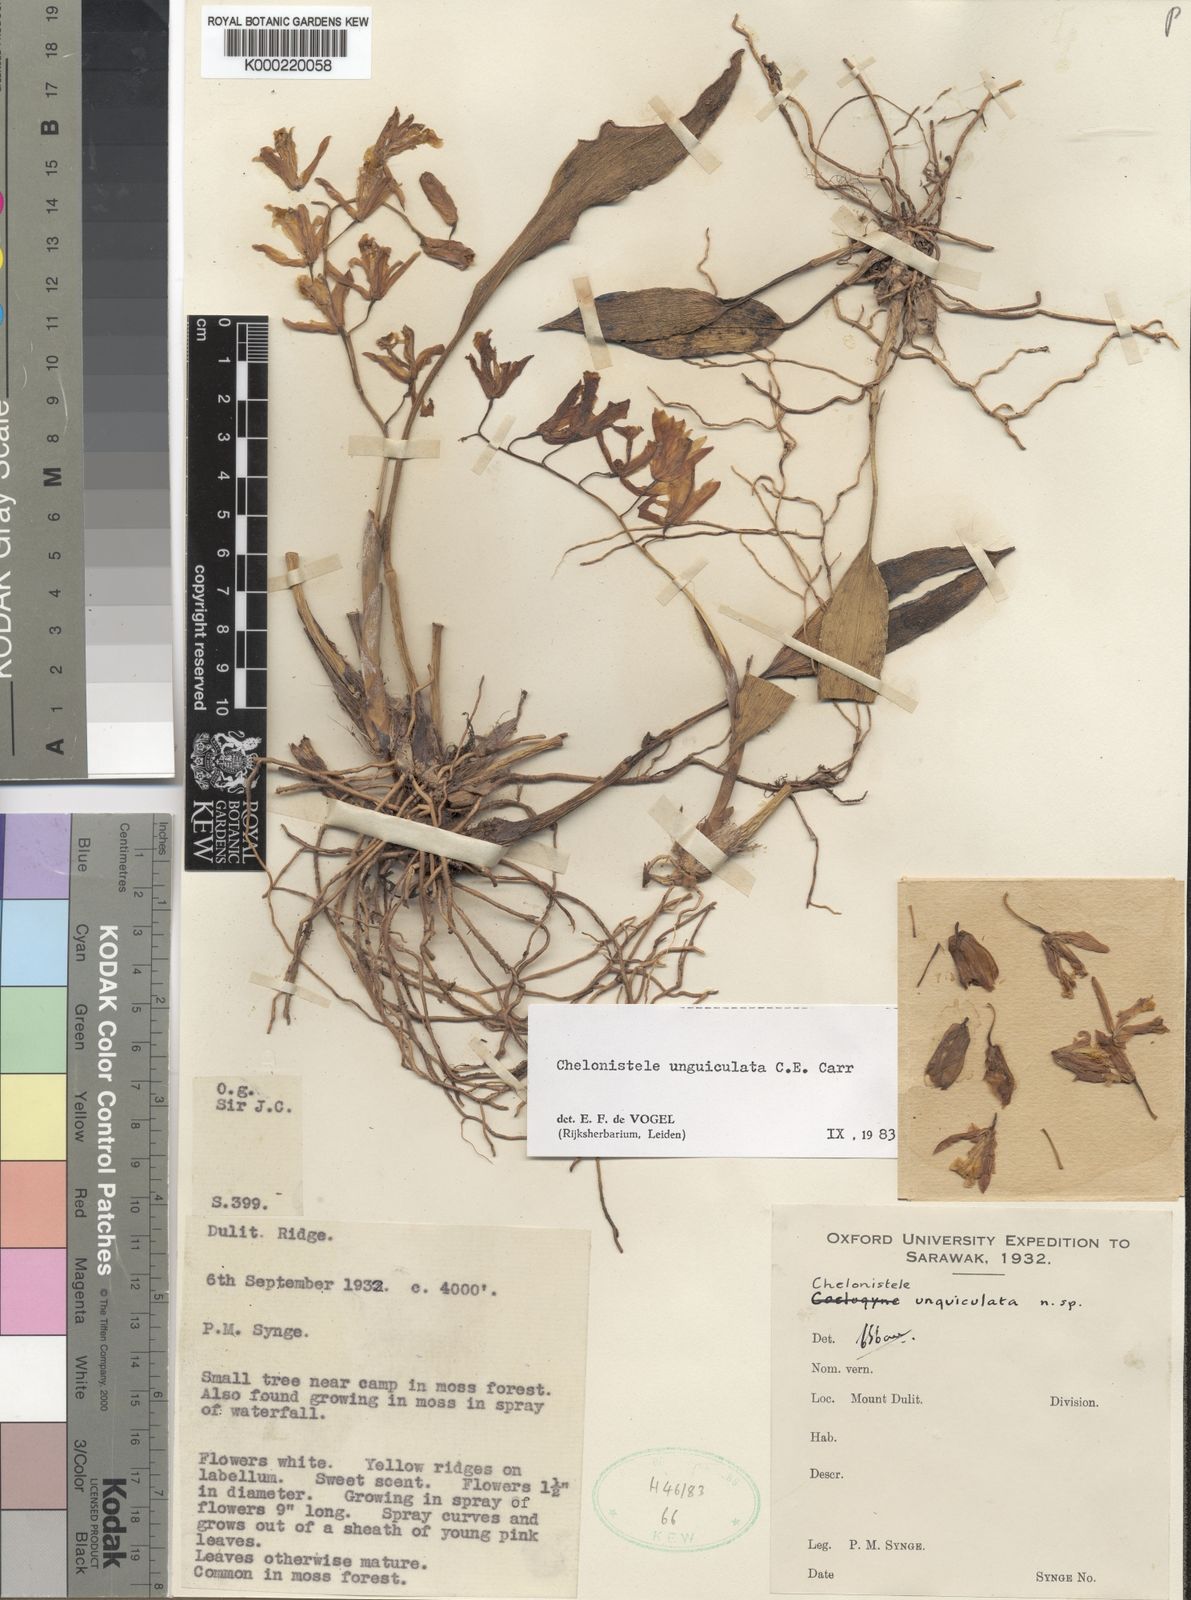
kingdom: Plantae
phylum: Tracheophyta
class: Liliopsida
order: Asparagales
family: Orchidaceae
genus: Coelogyne
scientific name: Coelogyne unguiculata
